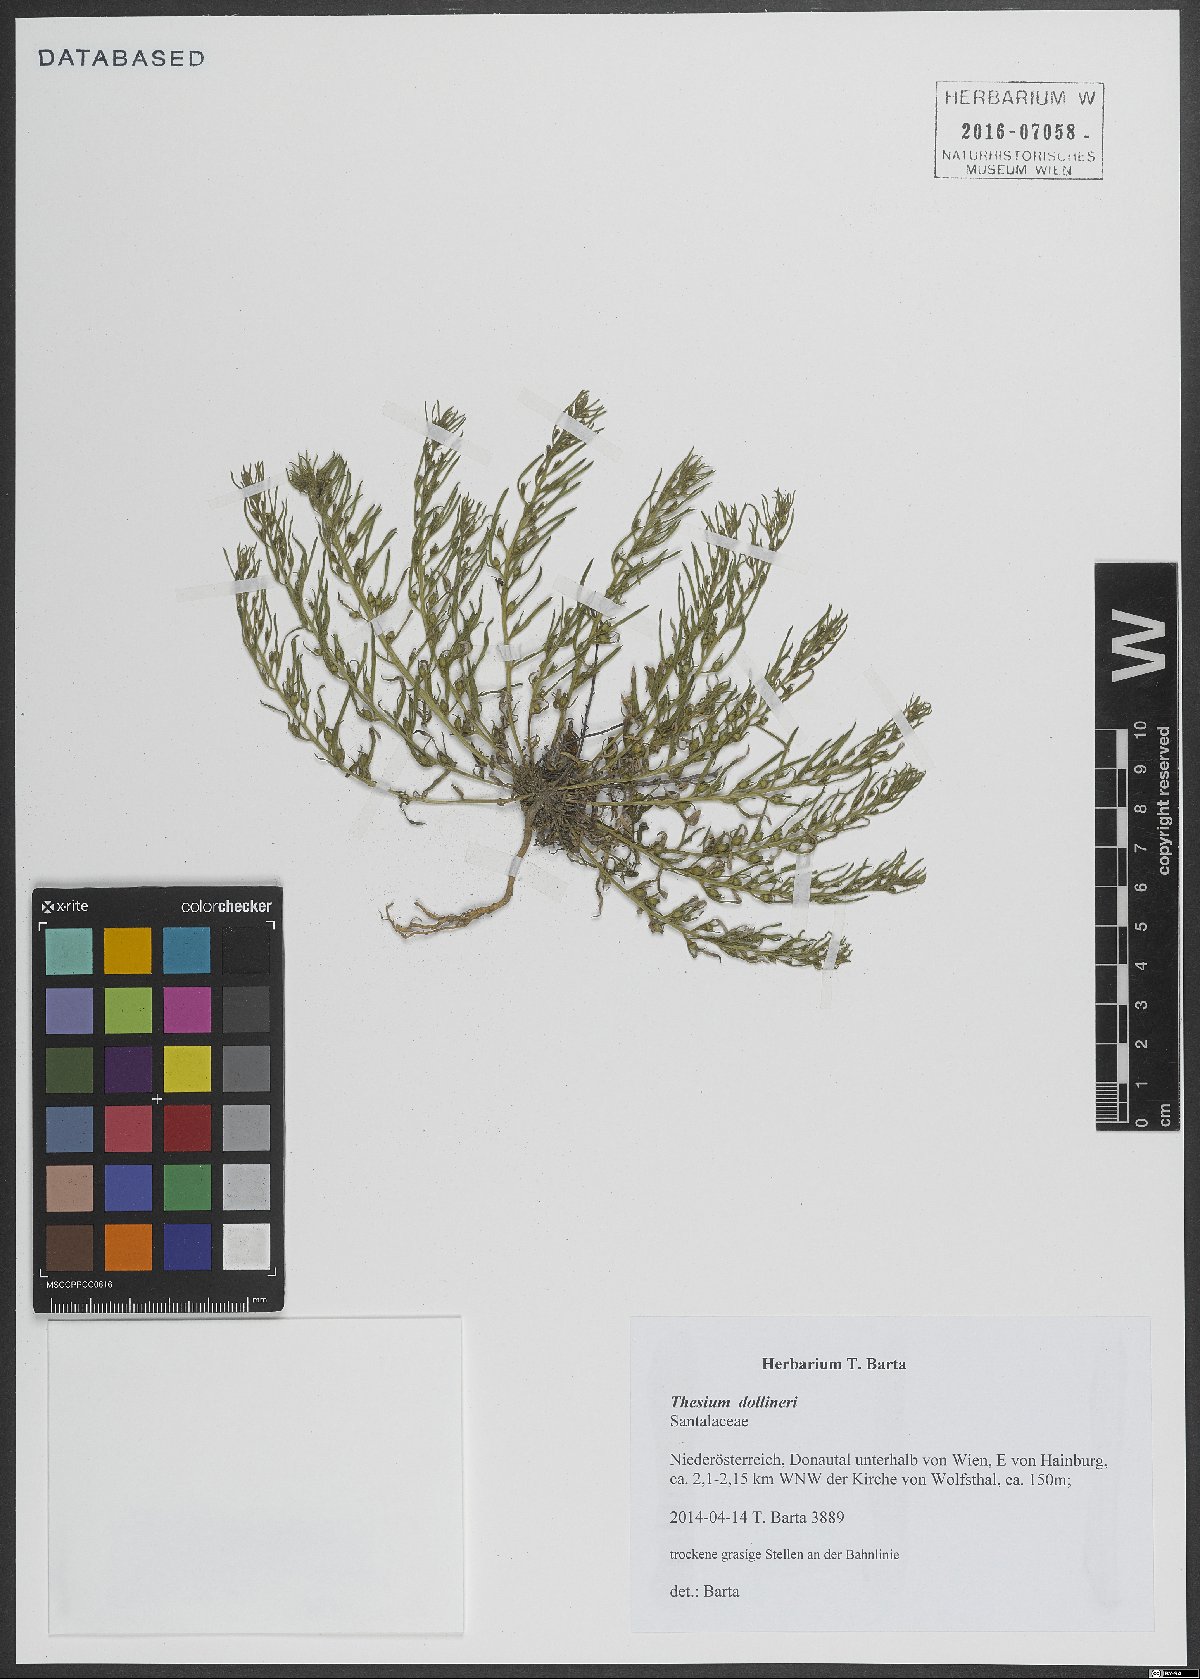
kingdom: Plantae
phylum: Tracheophyta
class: Magnoliopsida
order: Santalales
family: Thesiaceae
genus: Thesium
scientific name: Thesium dollineri
